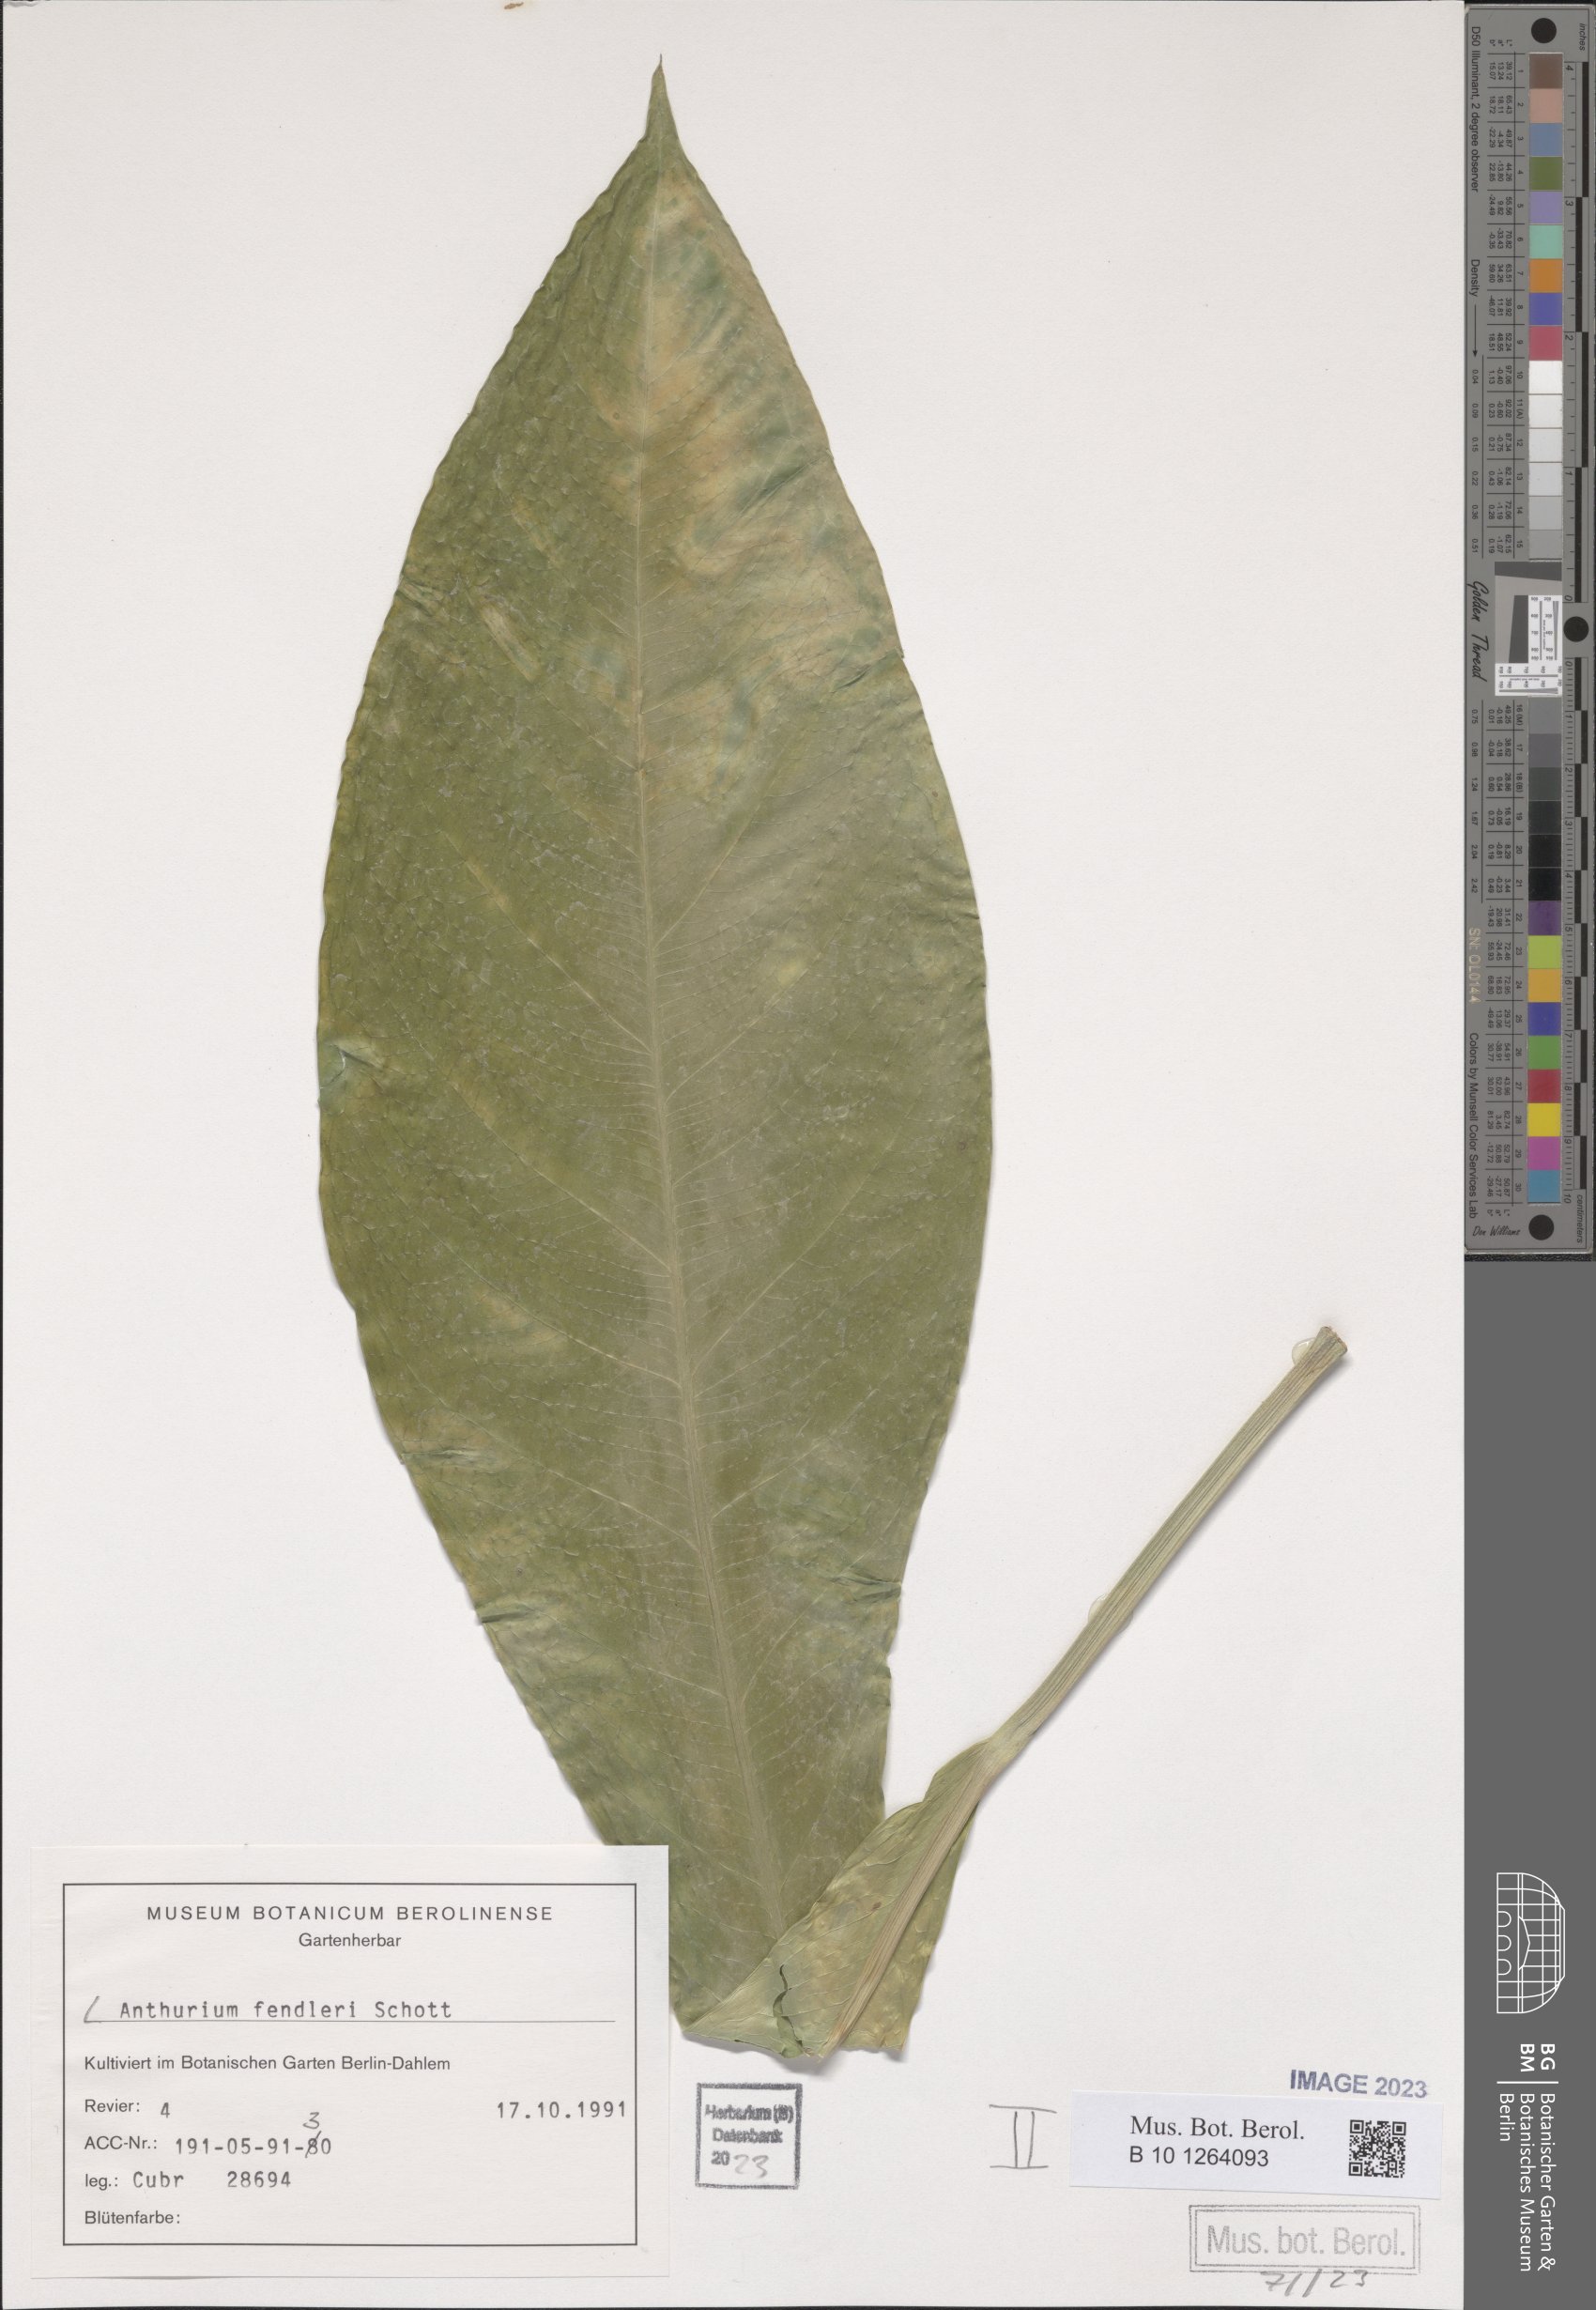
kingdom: Plantae
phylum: Tracheophyta
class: Liliopsida
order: Alismatales
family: Araceae
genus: Anthurium
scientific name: Anthurium fendleri
